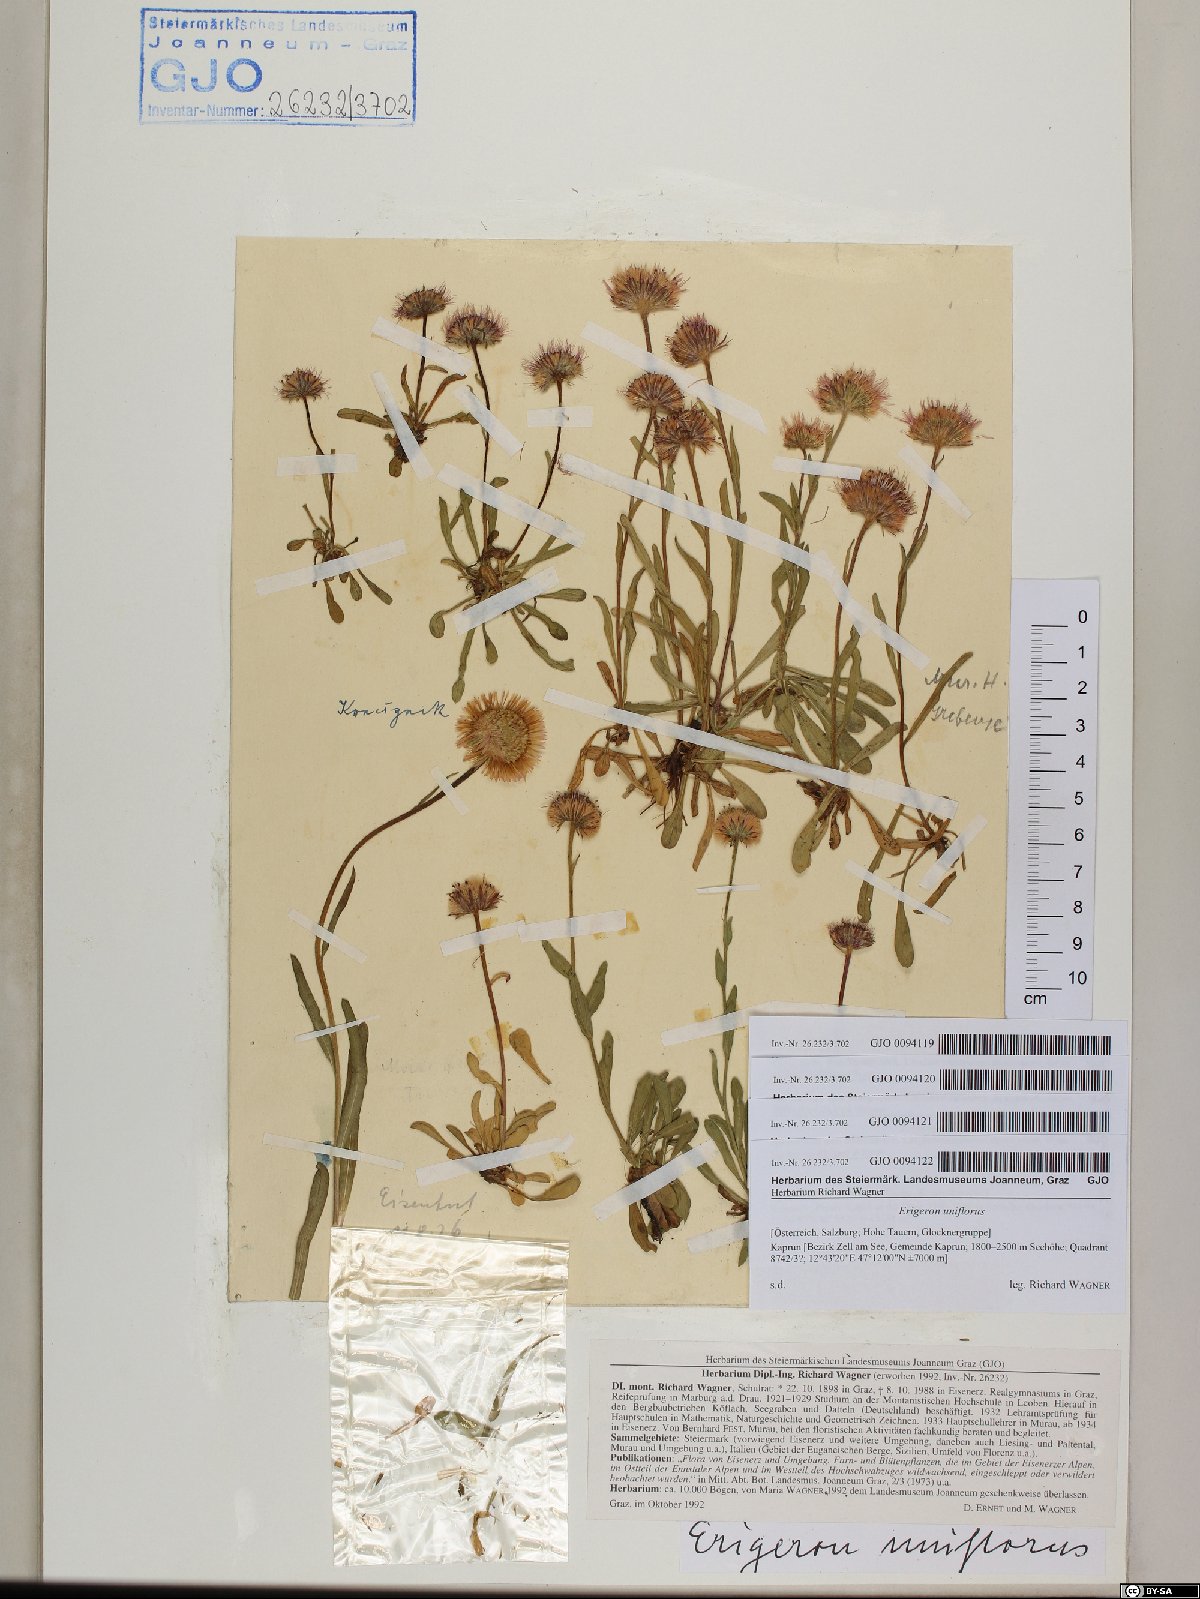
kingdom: Plantae
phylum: Tracheophyta
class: Magnoliopsida
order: Asterales
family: Asteraceae
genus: Erigeron
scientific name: Erigeron uniflorus
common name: Northern daisy
